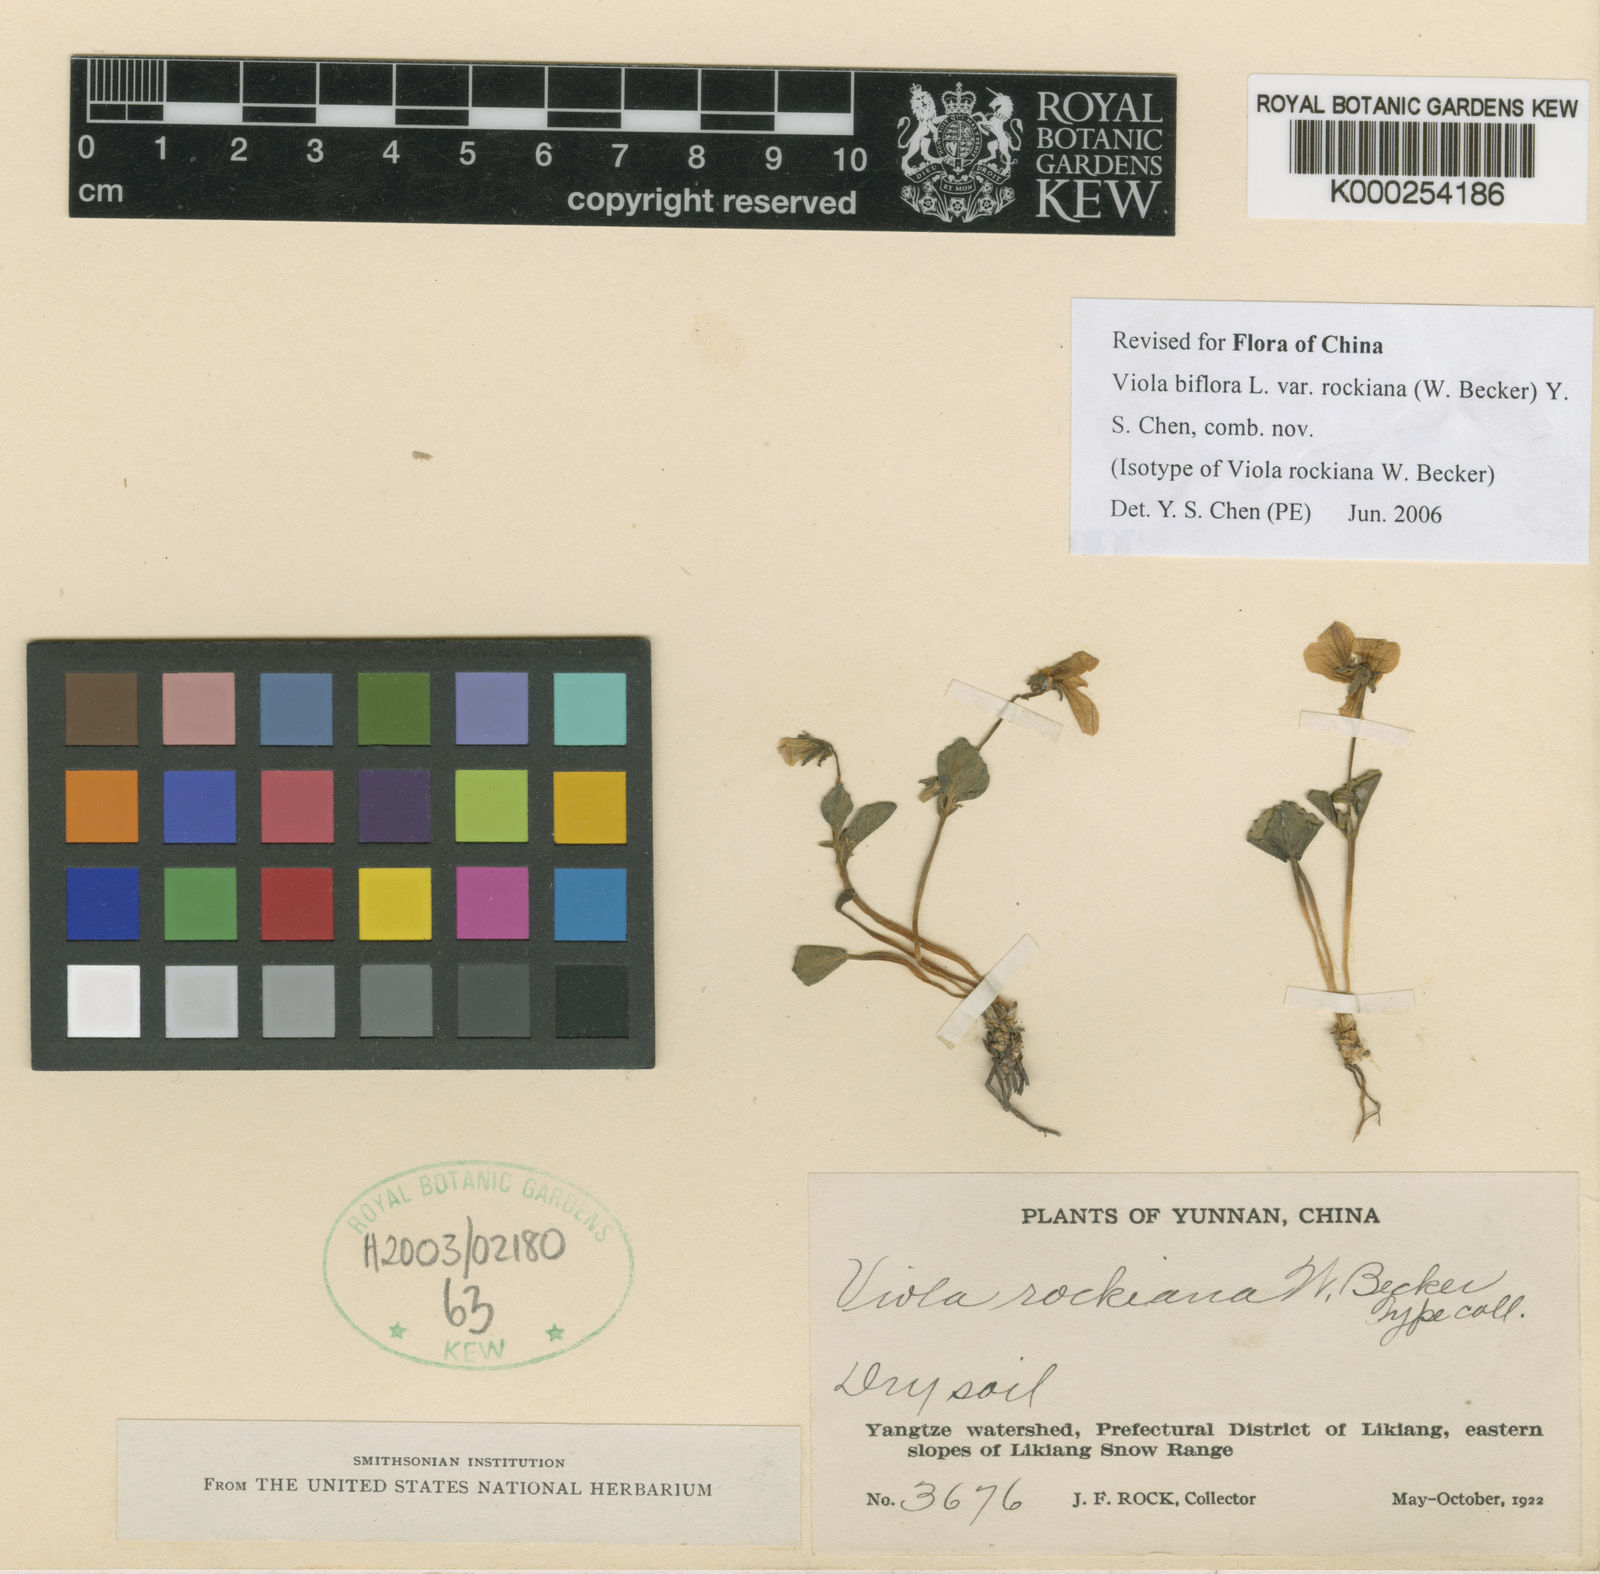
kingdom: Plantae
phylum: Tracheophyta
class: Magnoliopsida
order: Malpighiales
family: Violaceae
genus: Viola
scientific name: Viola rockiana
